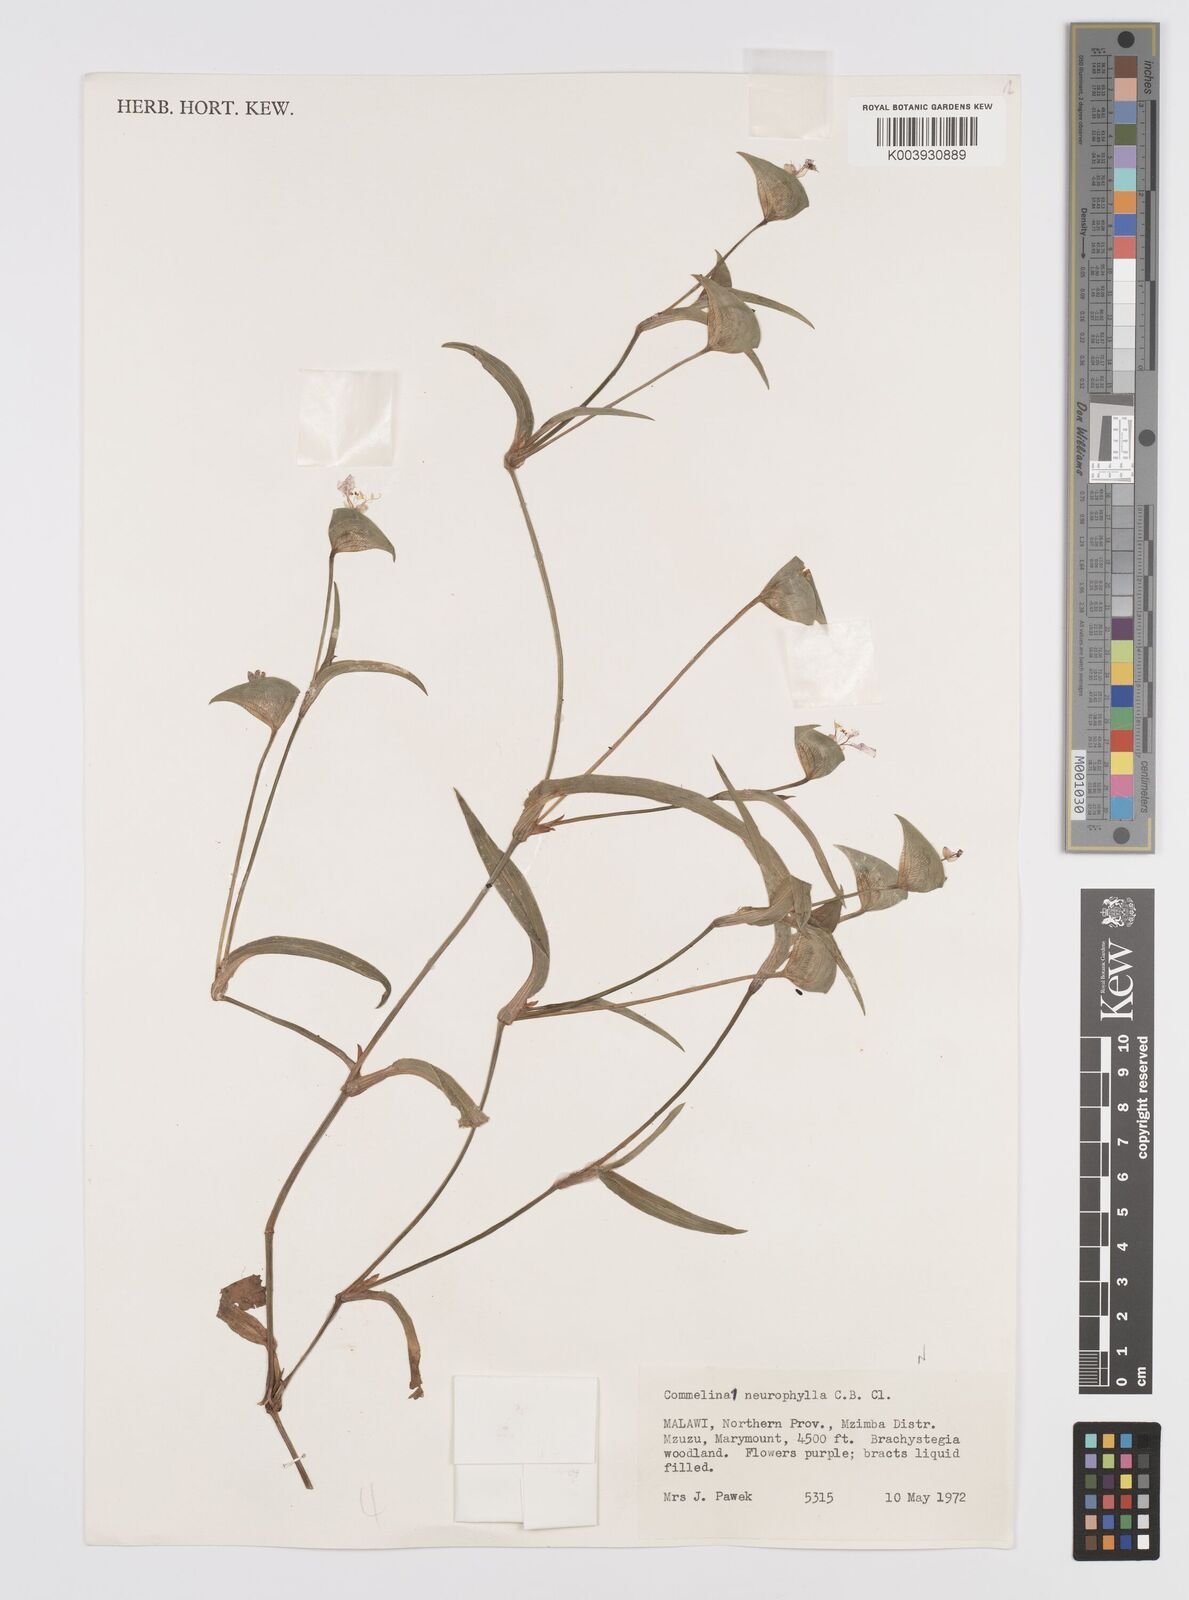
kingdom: Plantae
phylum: Tracheophyta
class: Liliopsida
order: Commelinales
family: Commelinaceae
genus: Commelina
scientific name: Commelina neurophylla
